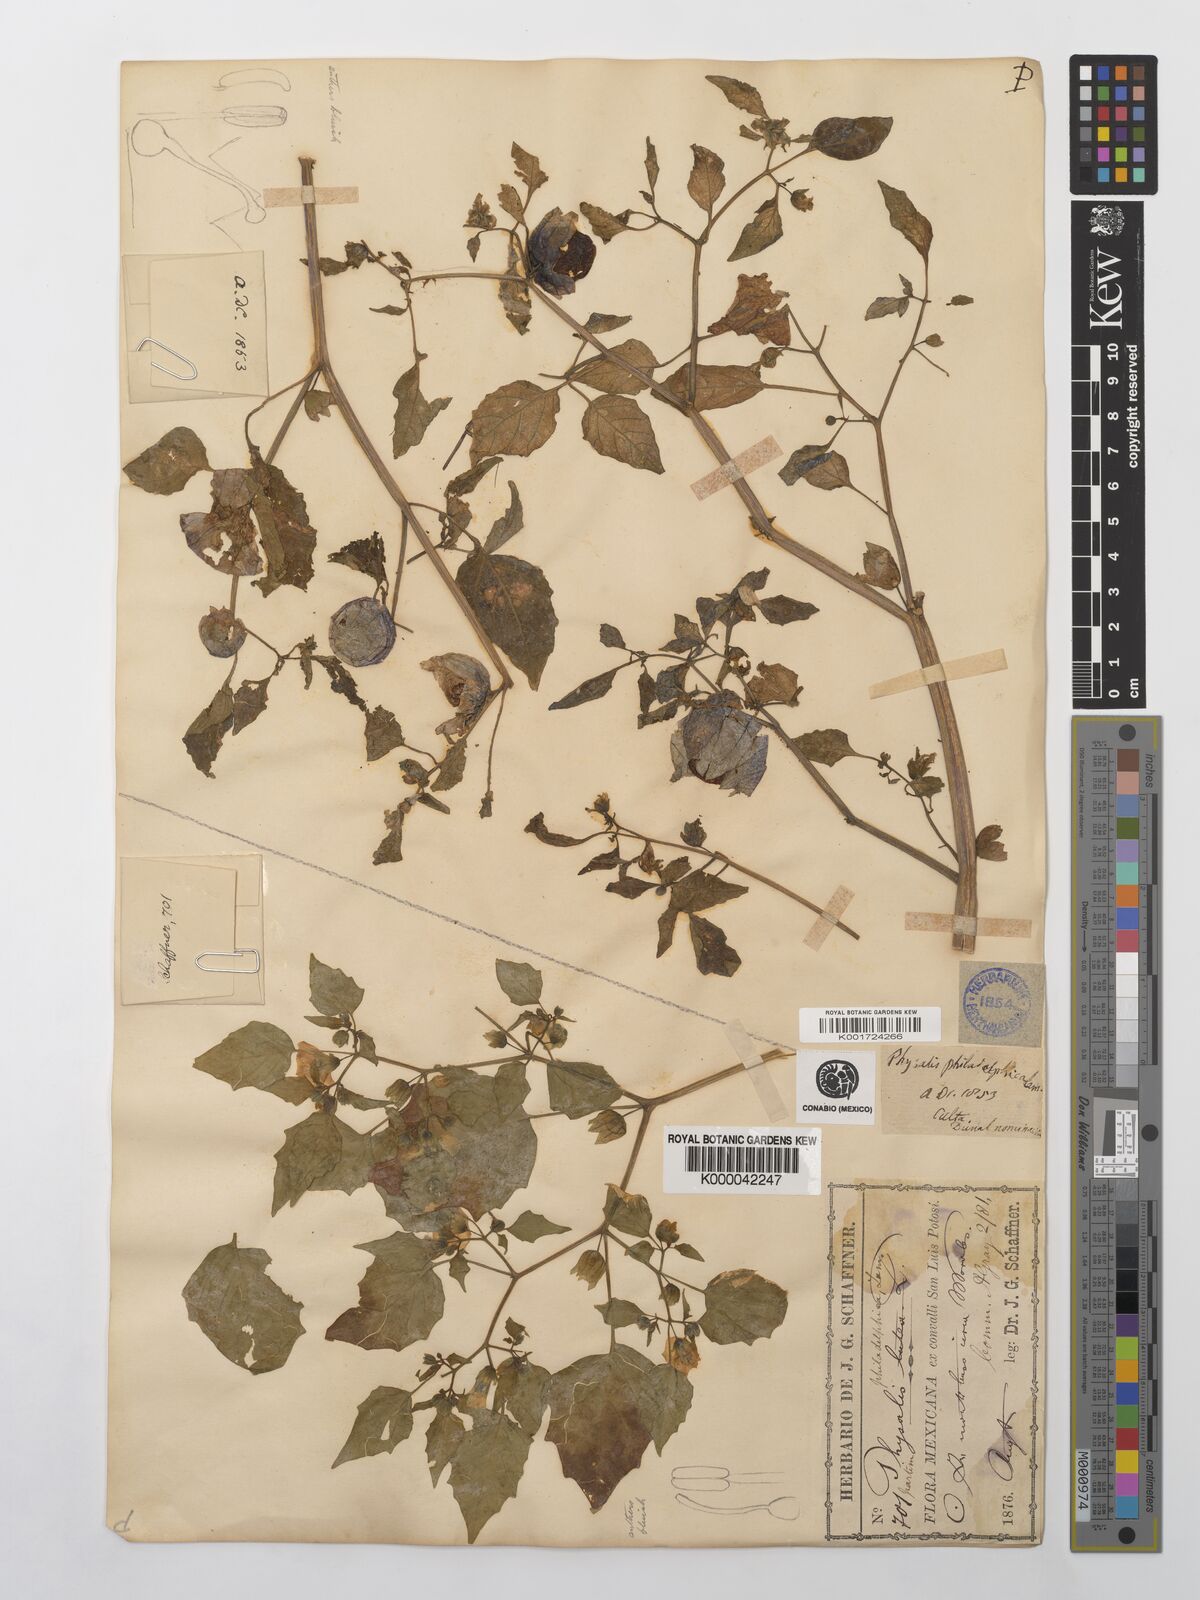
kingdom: Plantae
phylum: Tracheophyta
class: Magnoliopsida
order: Solanales
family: Solanaceae
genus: Physalis
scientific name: Physalis philadelphica
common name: Husk-tomato
